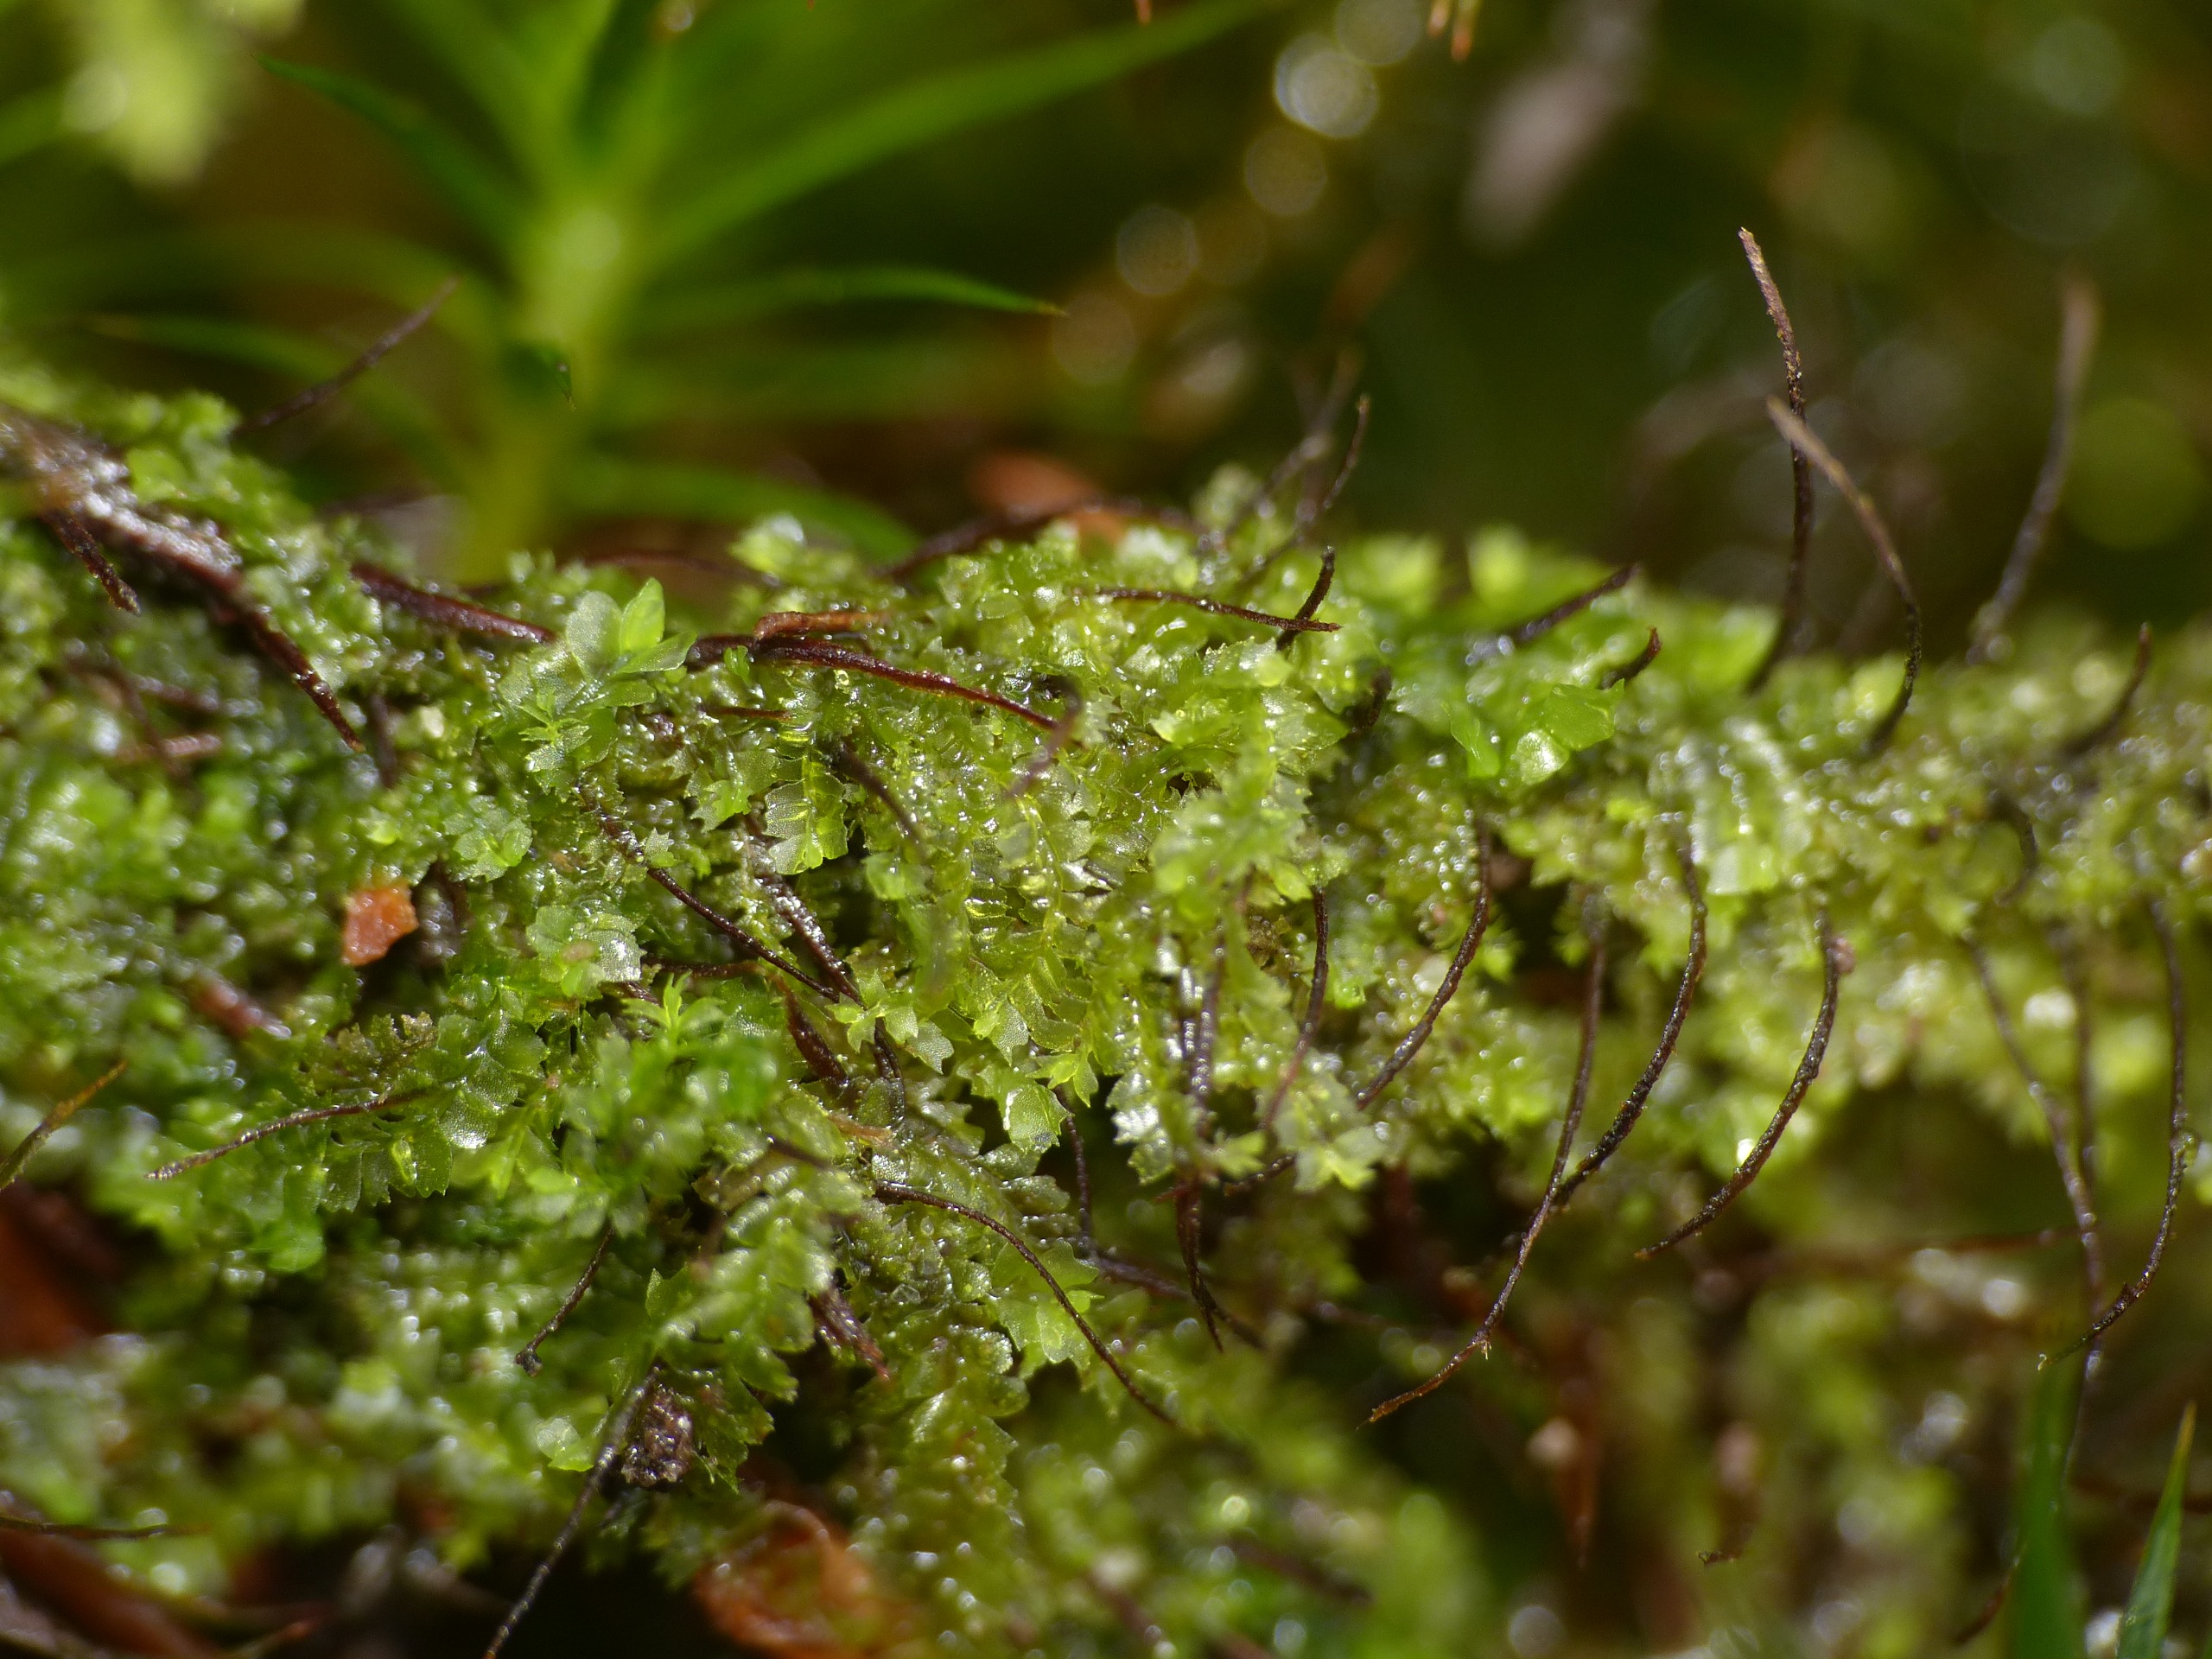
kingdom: Plantae
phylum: Marchantiophyta
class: Jungermanniopsida
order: Jungermanniales
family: Lophocoleaceae
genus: Lophocolea
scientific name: Lophocolea heterophylla
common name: Forskelligbladet kamsvøb
